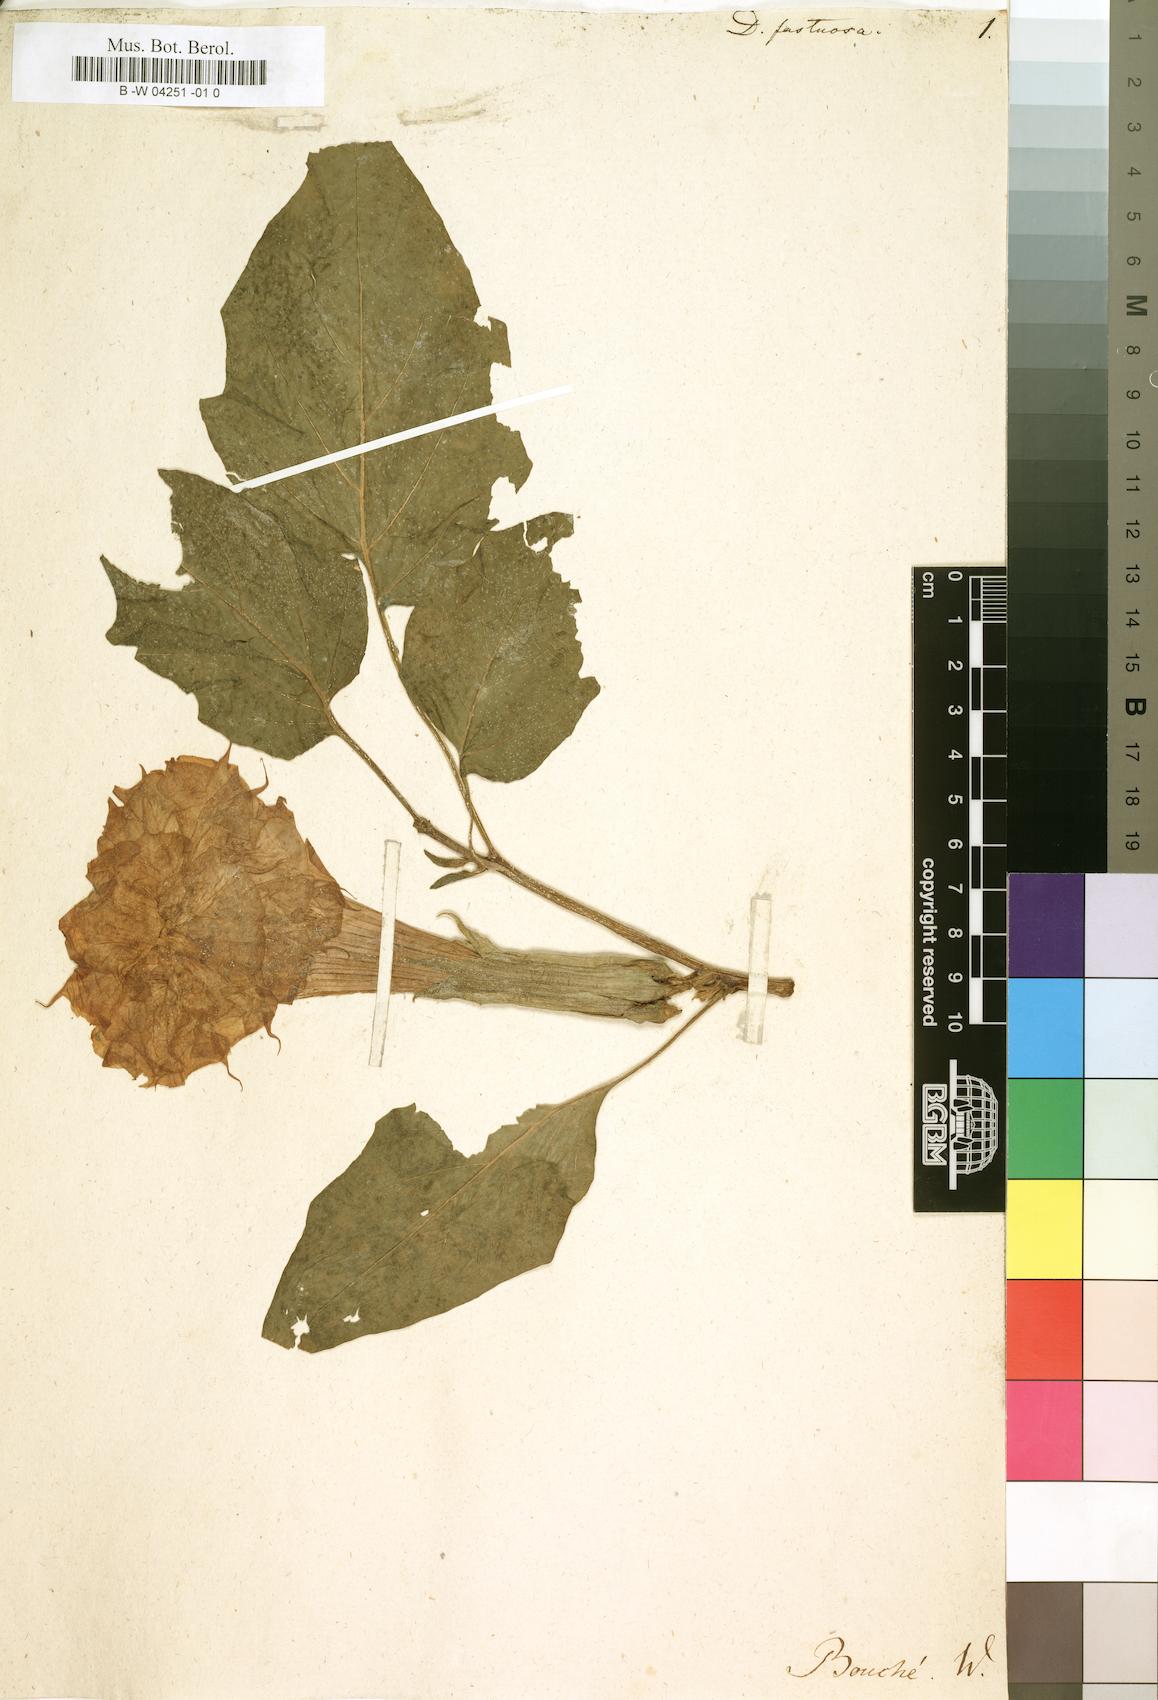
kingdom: Plantae
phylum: Tracheophyta
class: Magnoliopsida
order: Solanales
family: Solanaceae
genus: Datura
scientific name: Datura metel
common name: Jimsonweed
